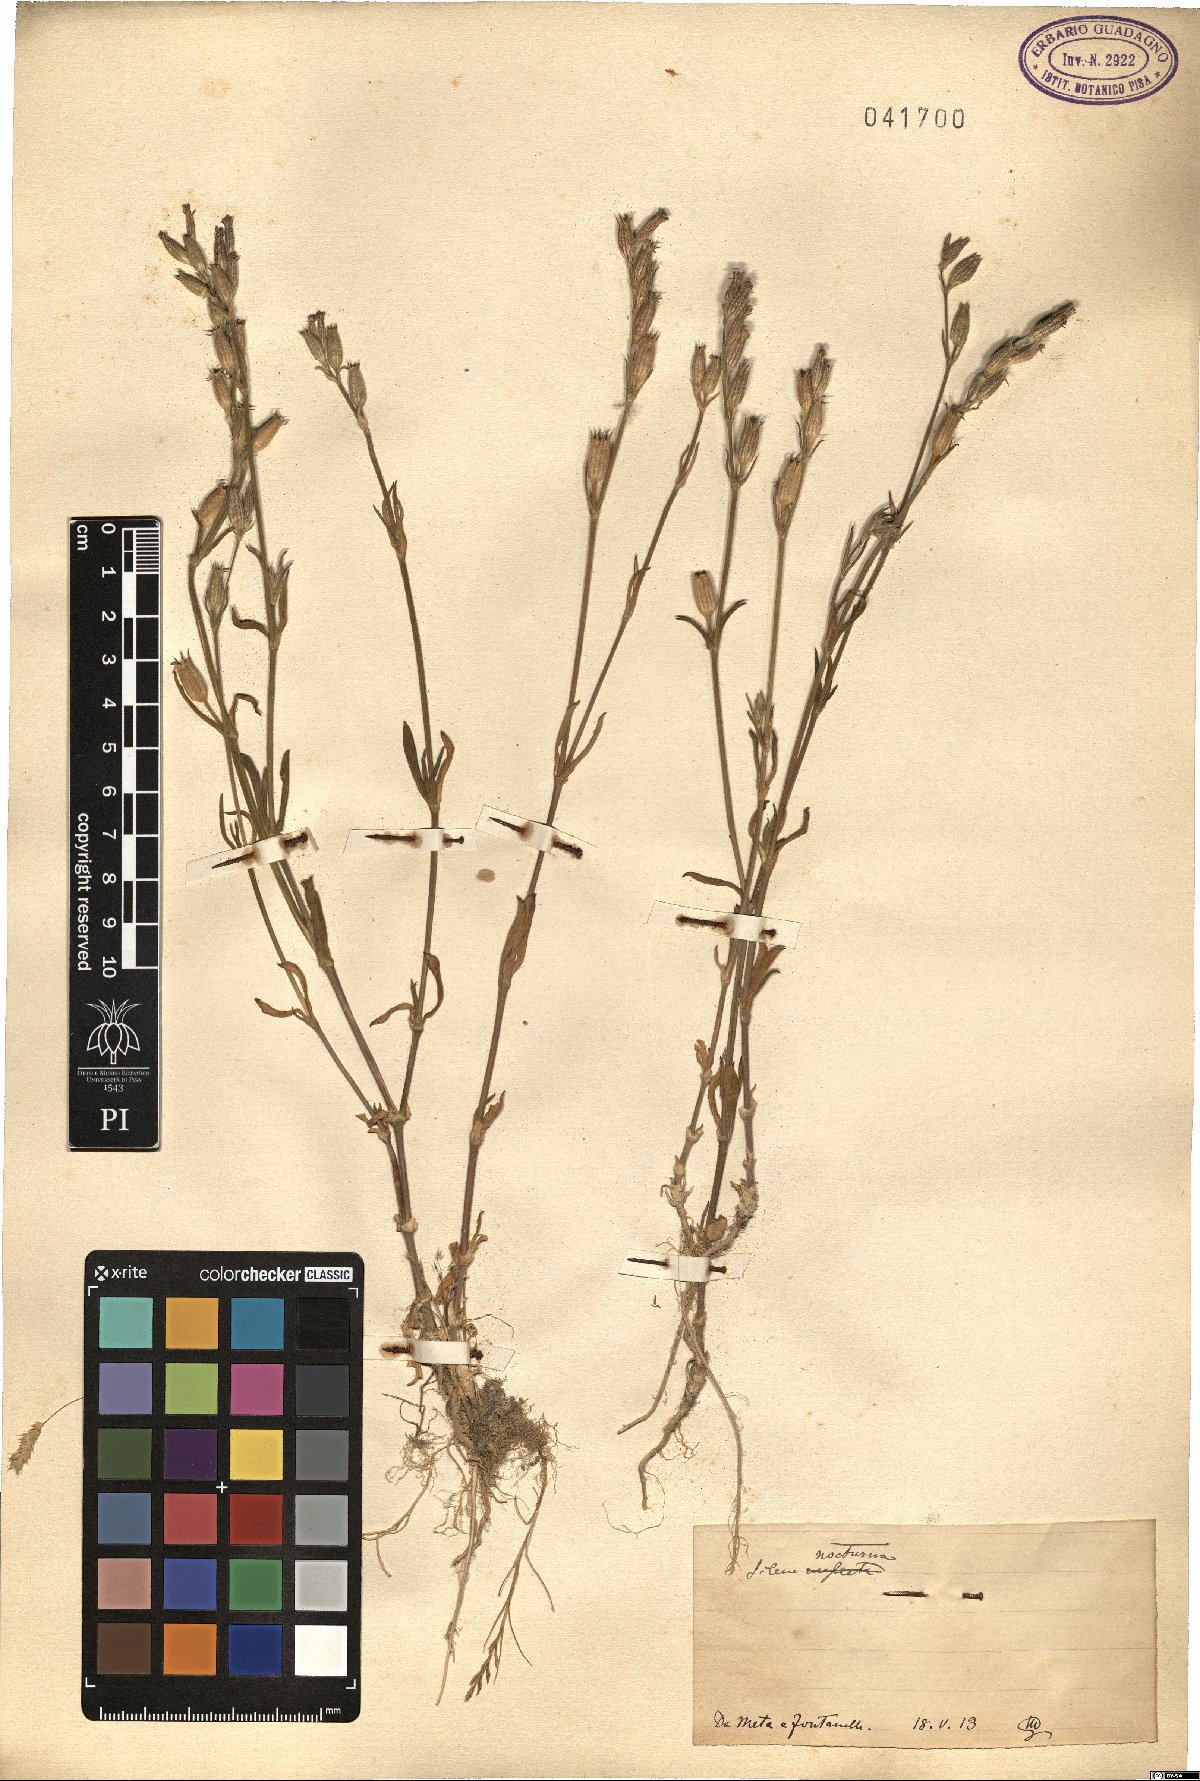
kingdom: Plantae
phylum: Tracheophyta
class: Magnoliopsida
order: Caryophyllales
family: Caryophyllaceae
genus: Silene
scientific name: Silene nocturna
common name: Mediterranean catchfly
